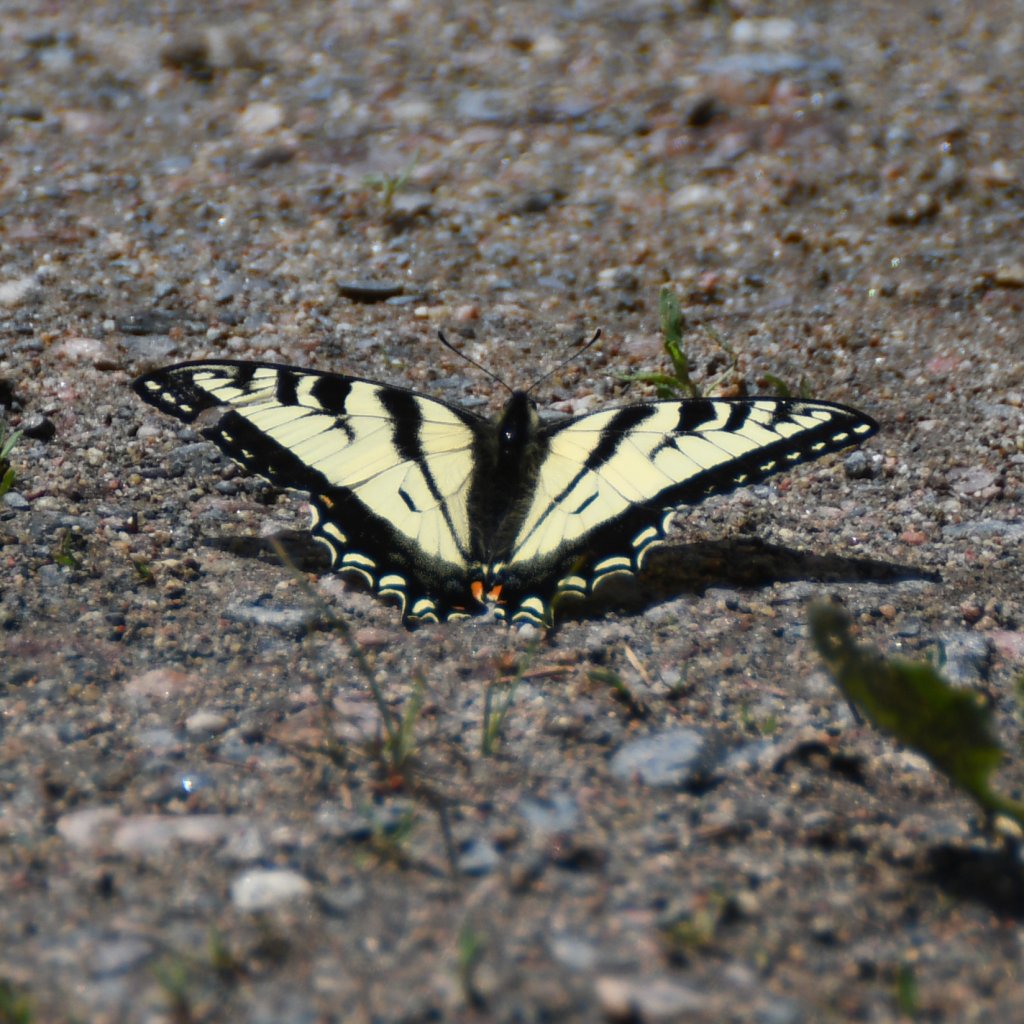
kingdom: Animalia
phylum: Arthropoda
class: Insecta
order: Lepidoptera
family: Papilionidae
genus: Pterourus
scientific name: Pterourus canadensis
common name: Canadian Tiger Swallowtail
